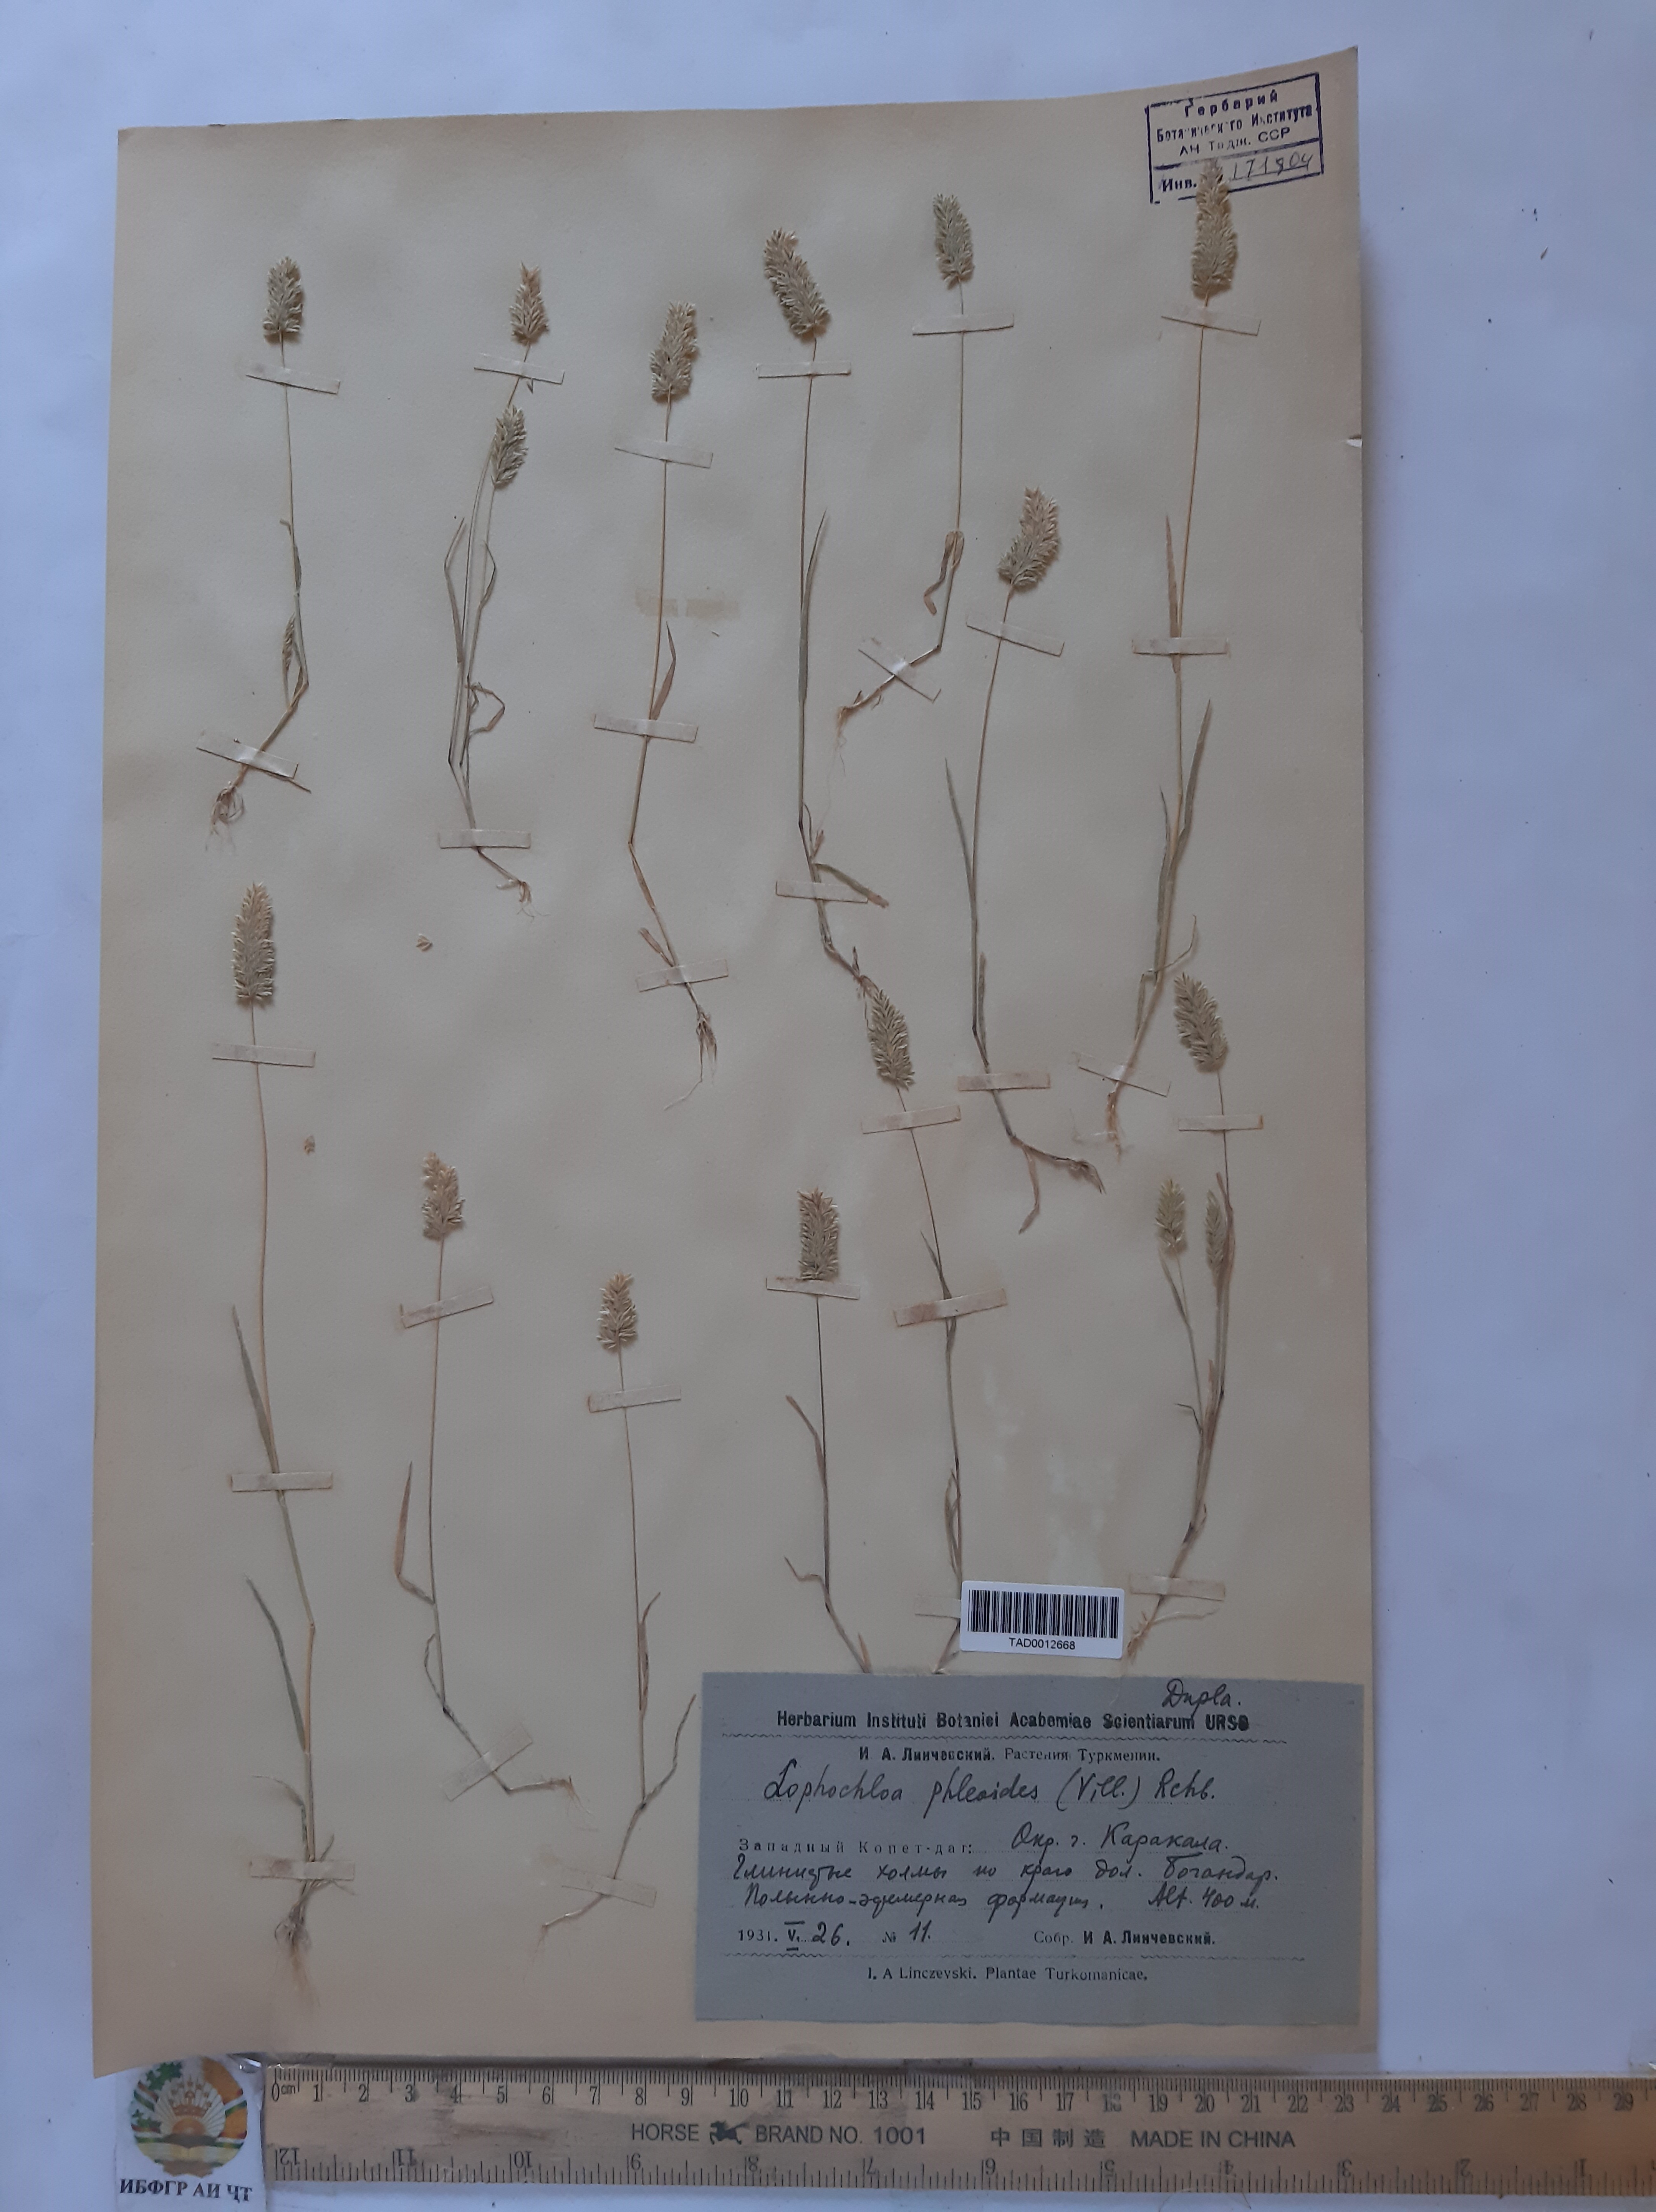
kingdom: Plantae
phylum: Tracheophyta
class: Liliopsida
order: Poales
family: Poaceae
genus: Rostraria
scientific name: Rostraria cristata
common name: Mediterranean hair-grass
